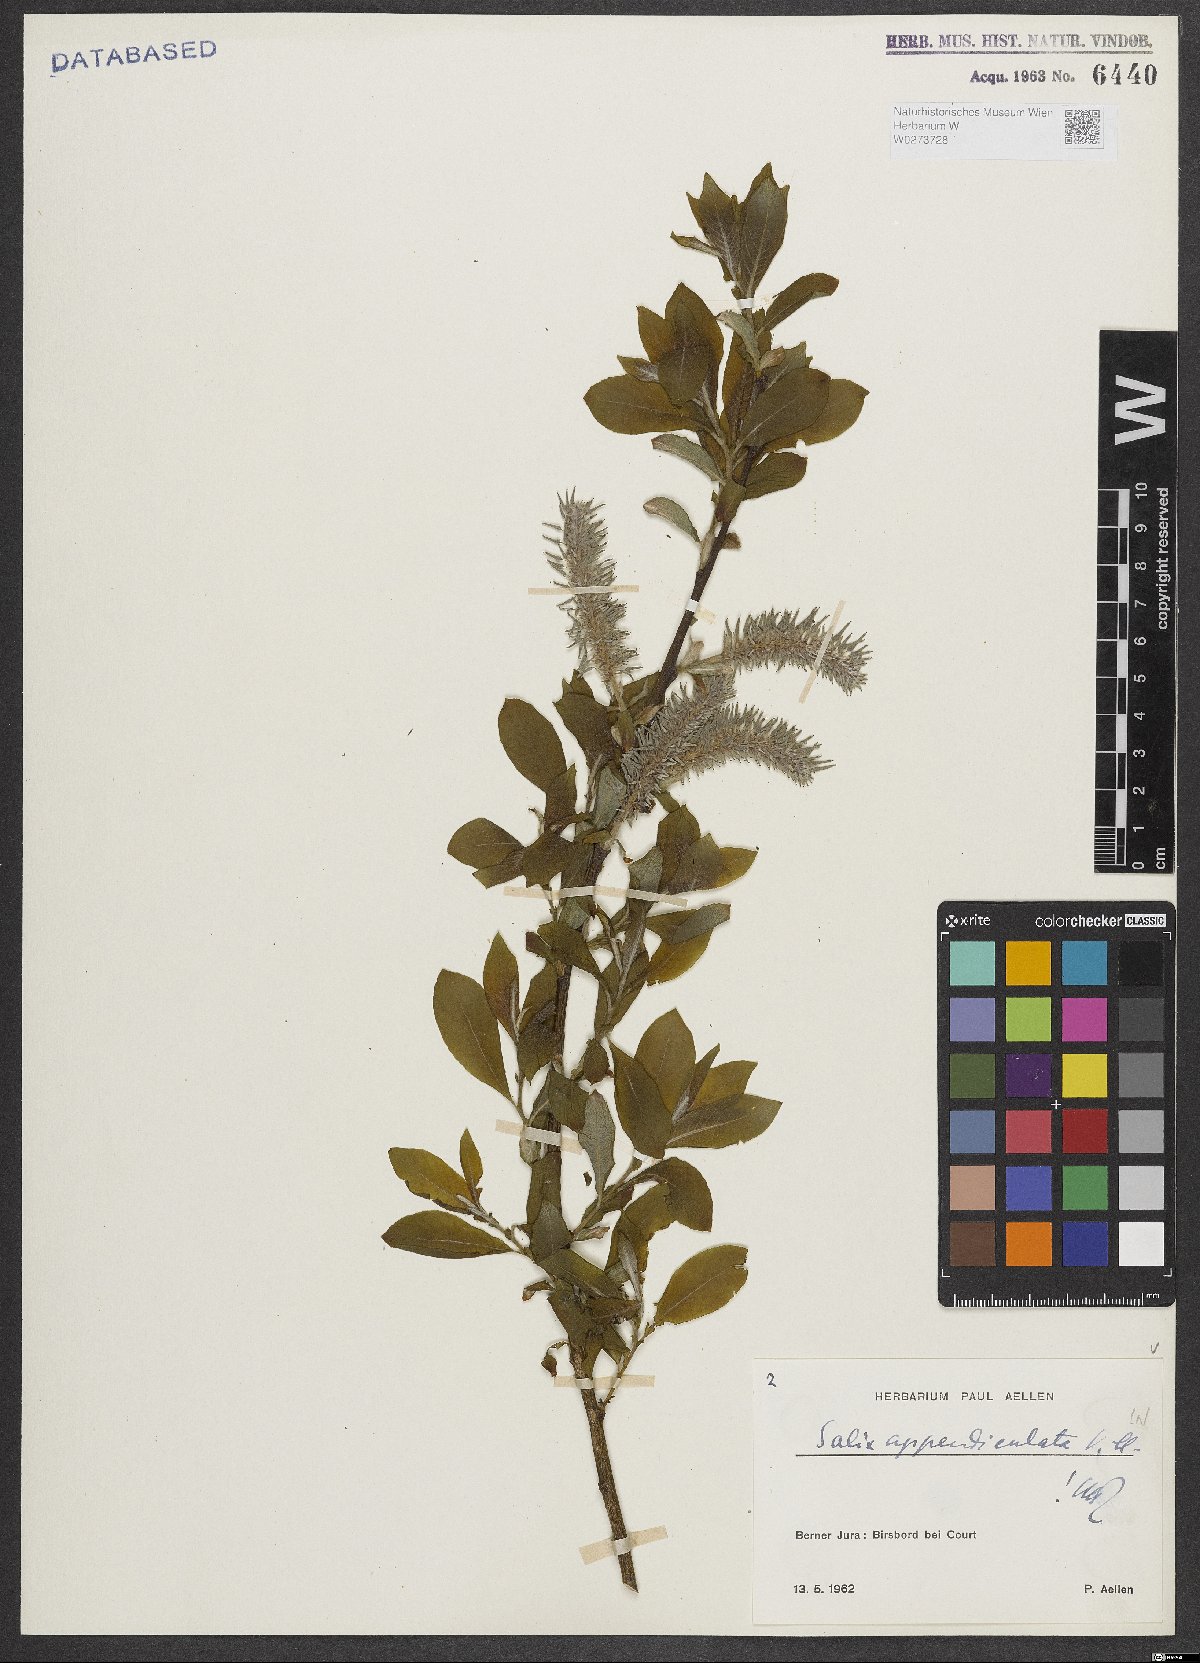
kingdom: Plantae
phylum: Tracheophyta
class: Magnoliopsida
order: Malpighiales
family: Salicaceae
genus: Salix
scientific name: Salix appendiculata
